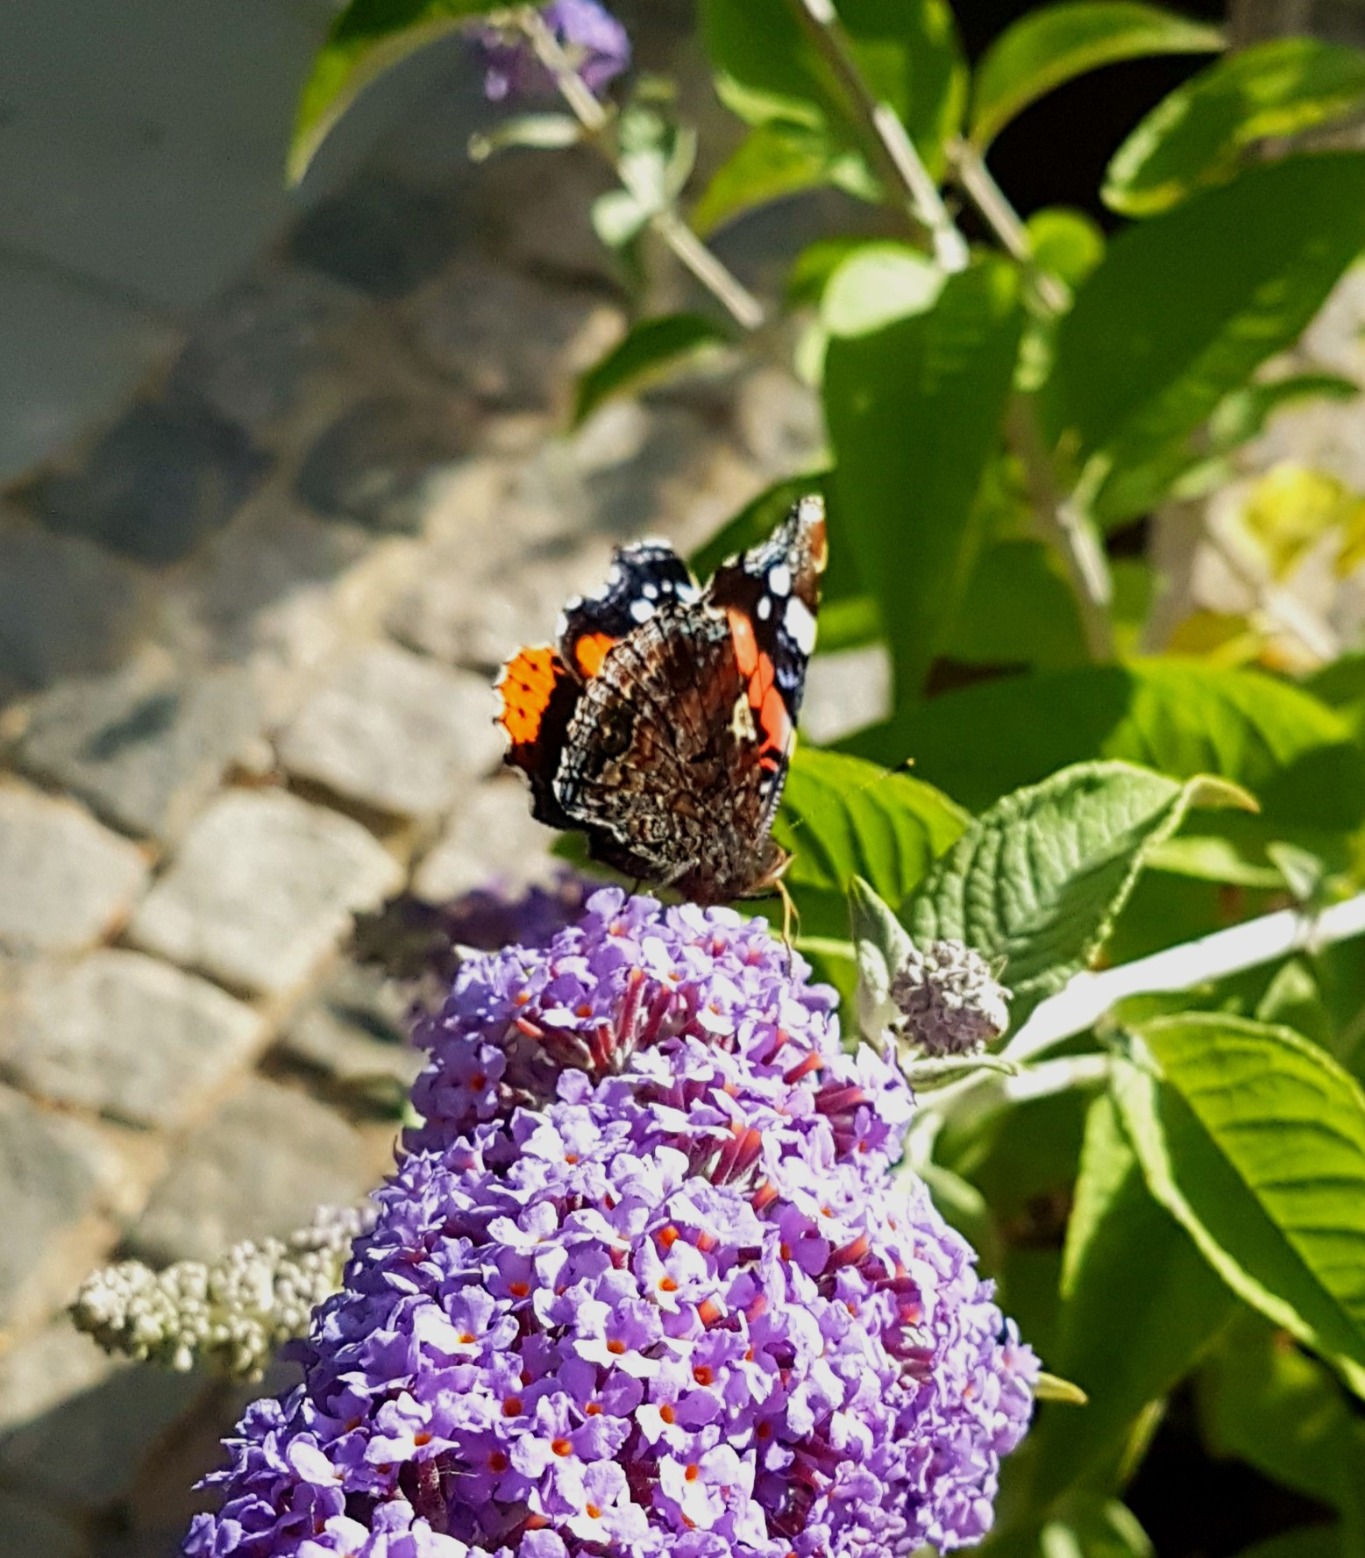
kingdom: Animalia
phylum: Arthropoda
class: Insecta
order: Lepidoptera
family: Nymphalidae
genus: Vanessa
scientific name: Vanessa atalanta
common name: Admiral
